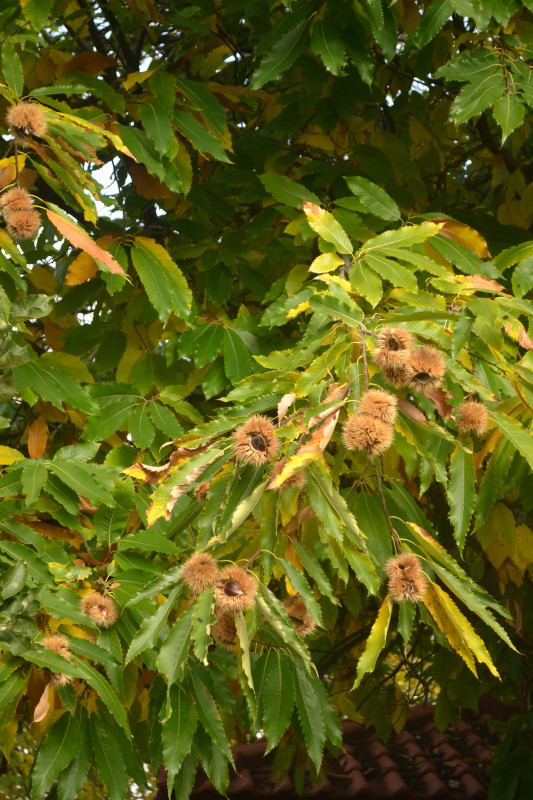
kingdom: Plantae
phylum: Tracheophyta
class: Magnoliopsida
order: Fagales
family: Fagaceae
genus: Castanea
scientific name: Castanea sativa
